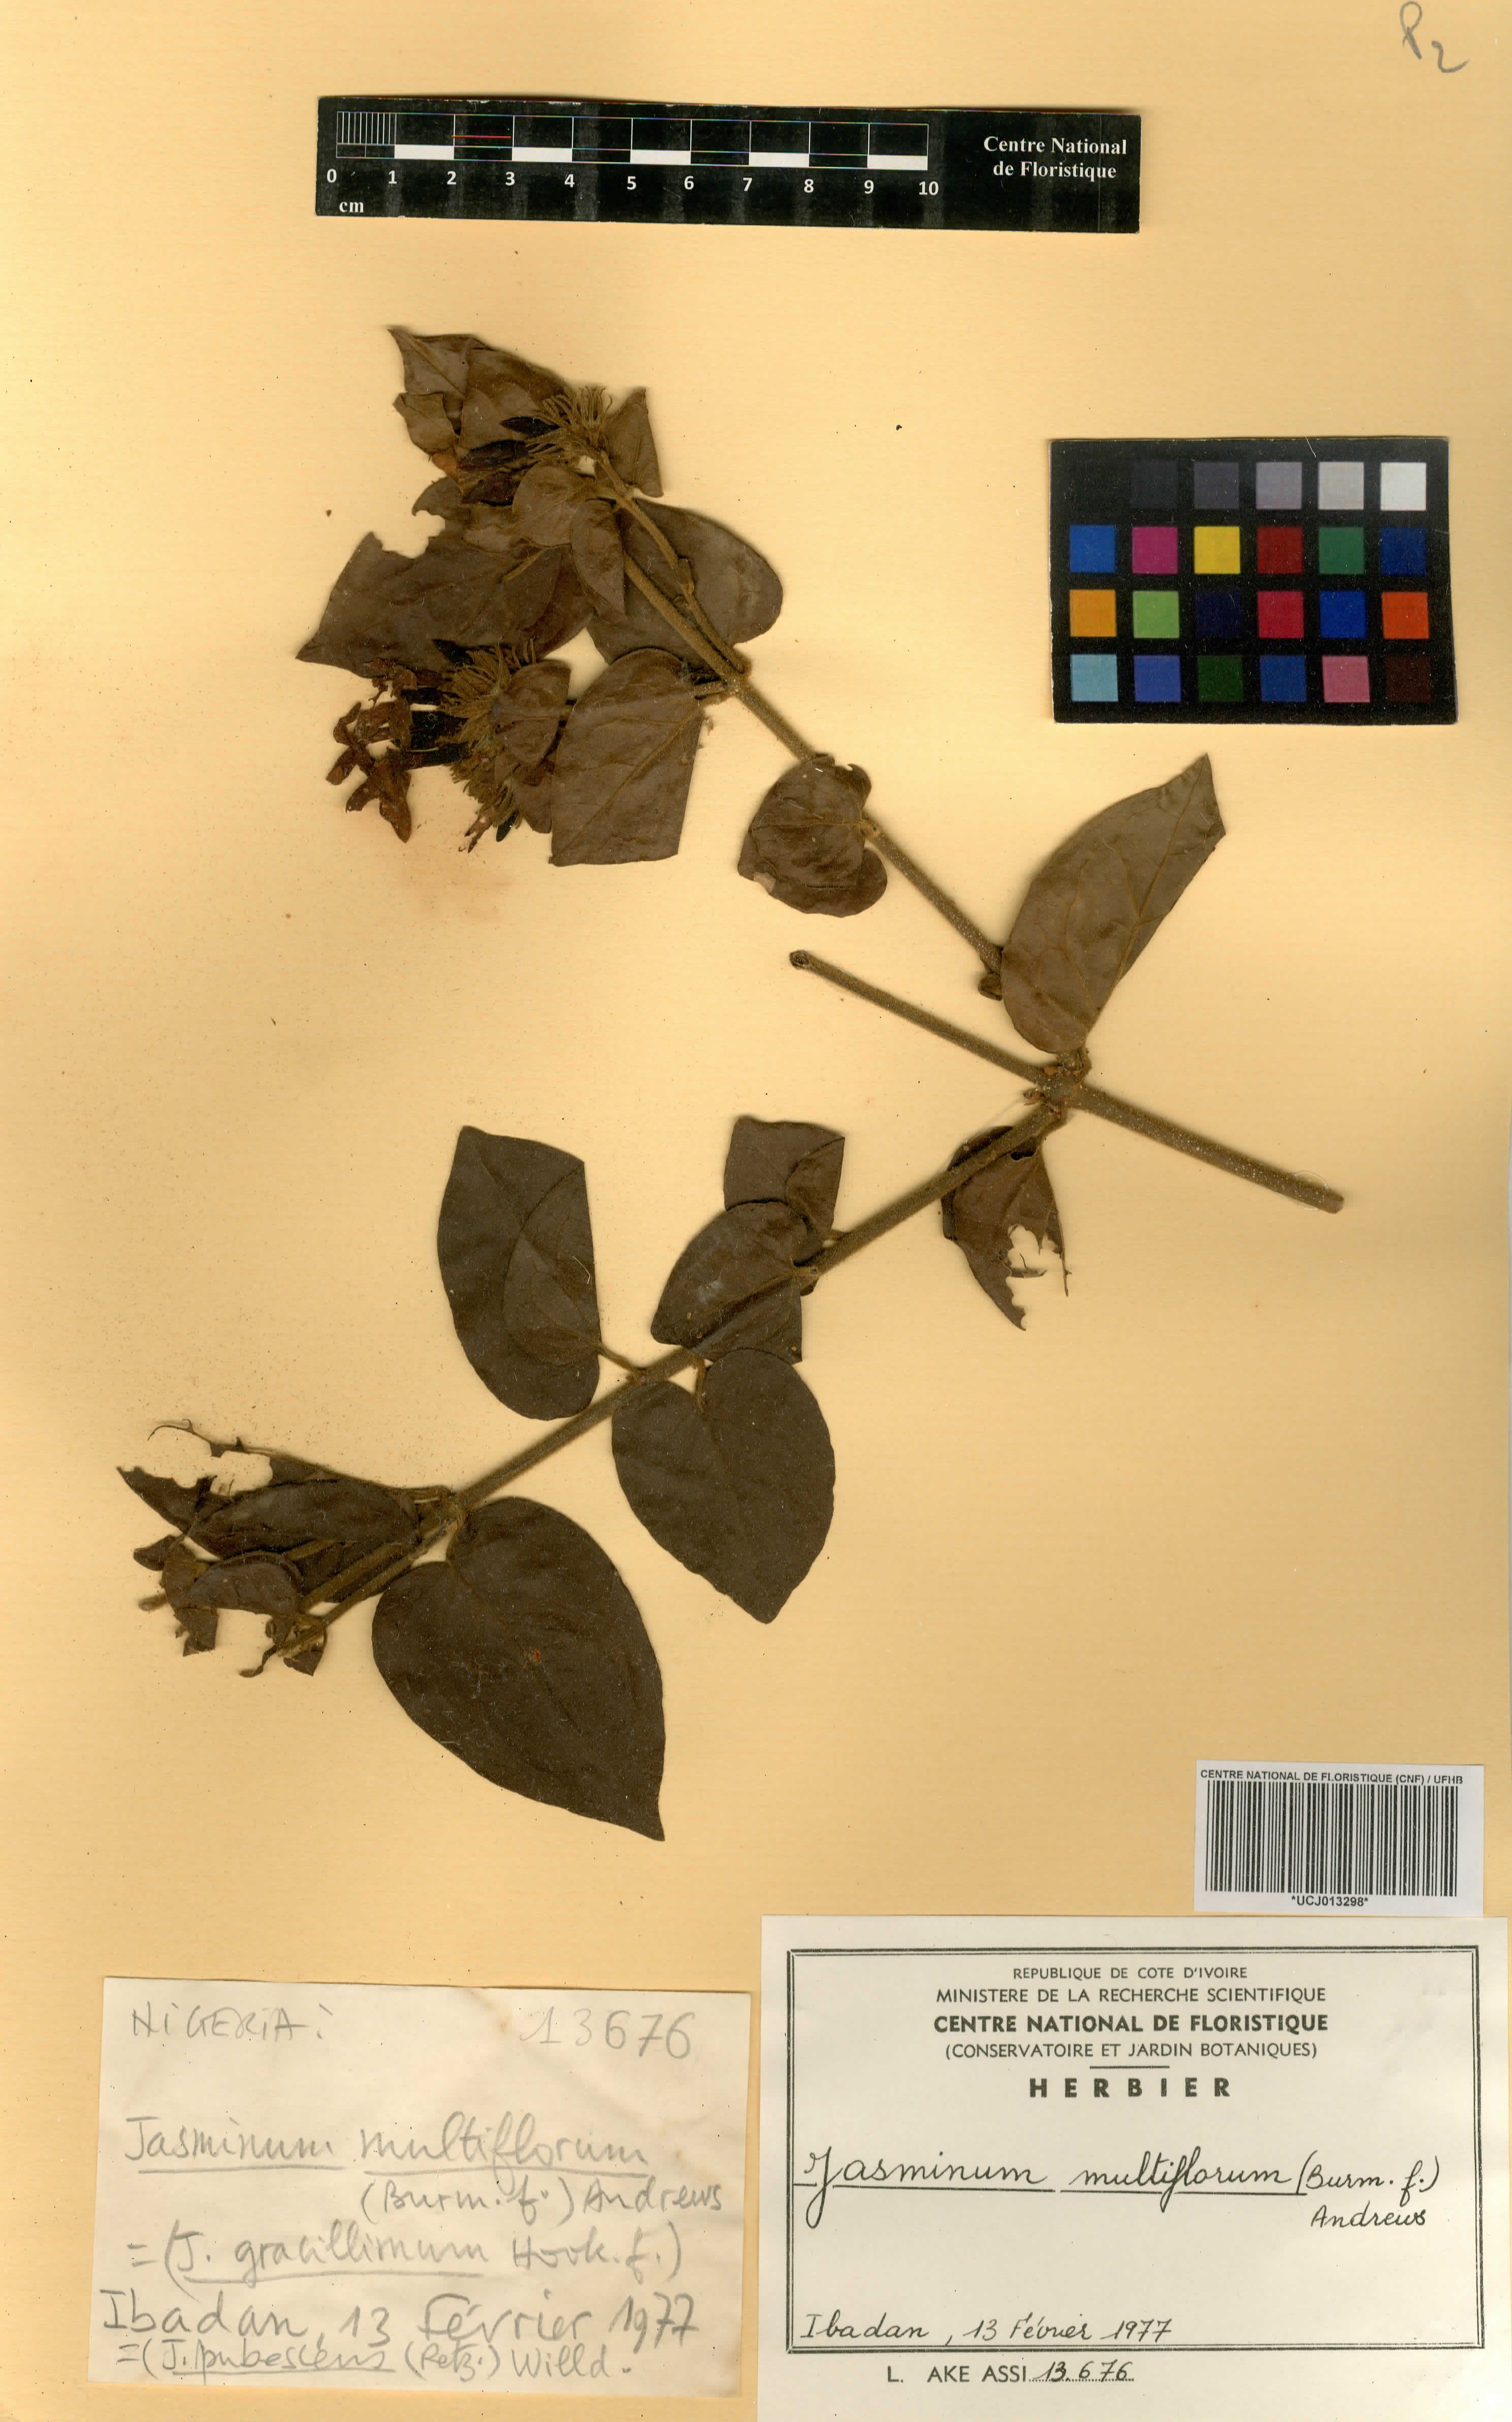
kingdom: Plantae
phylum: Tracheophyta
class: Magnoliopsida
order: Lamiales
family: Oleaceae
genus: Jasminum
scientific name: Jasminum multiflorum
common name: Star jasmine
